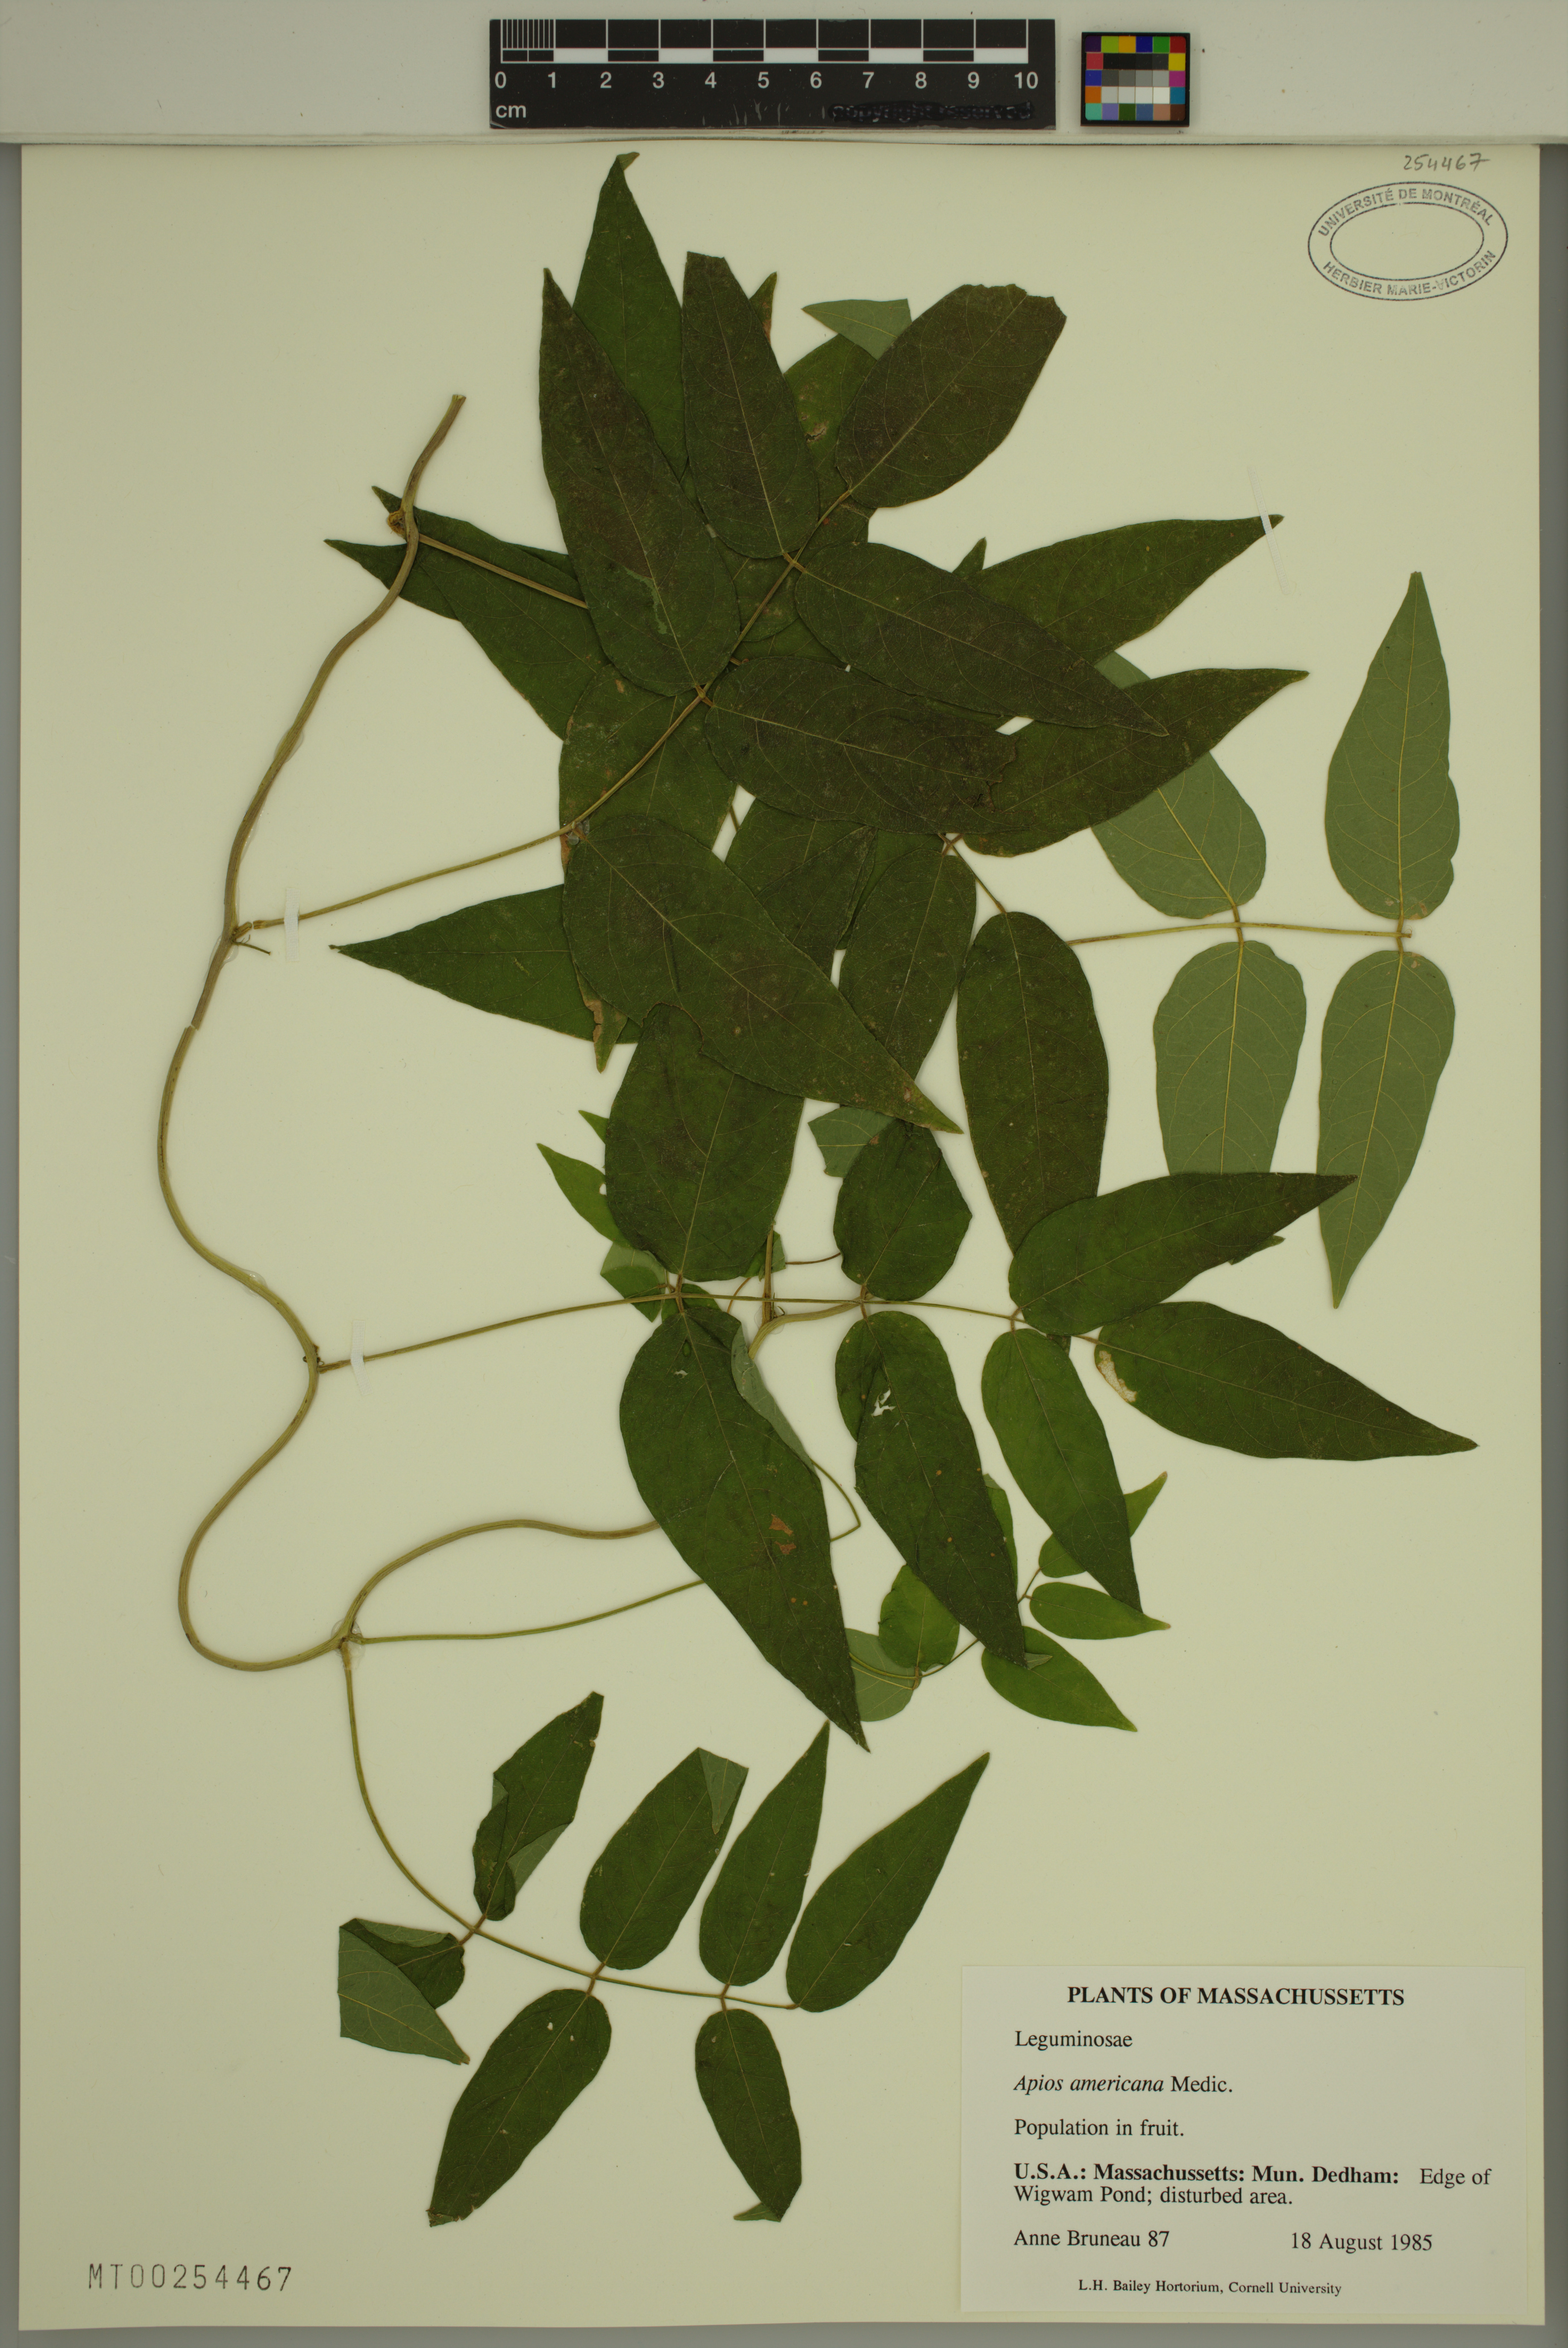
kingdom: Plantae
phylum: Tracheophyta
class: Magnoliopsida
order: Fabales
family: Fabaceae
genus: Apios
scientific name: Apios americana
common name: American potato-bean
